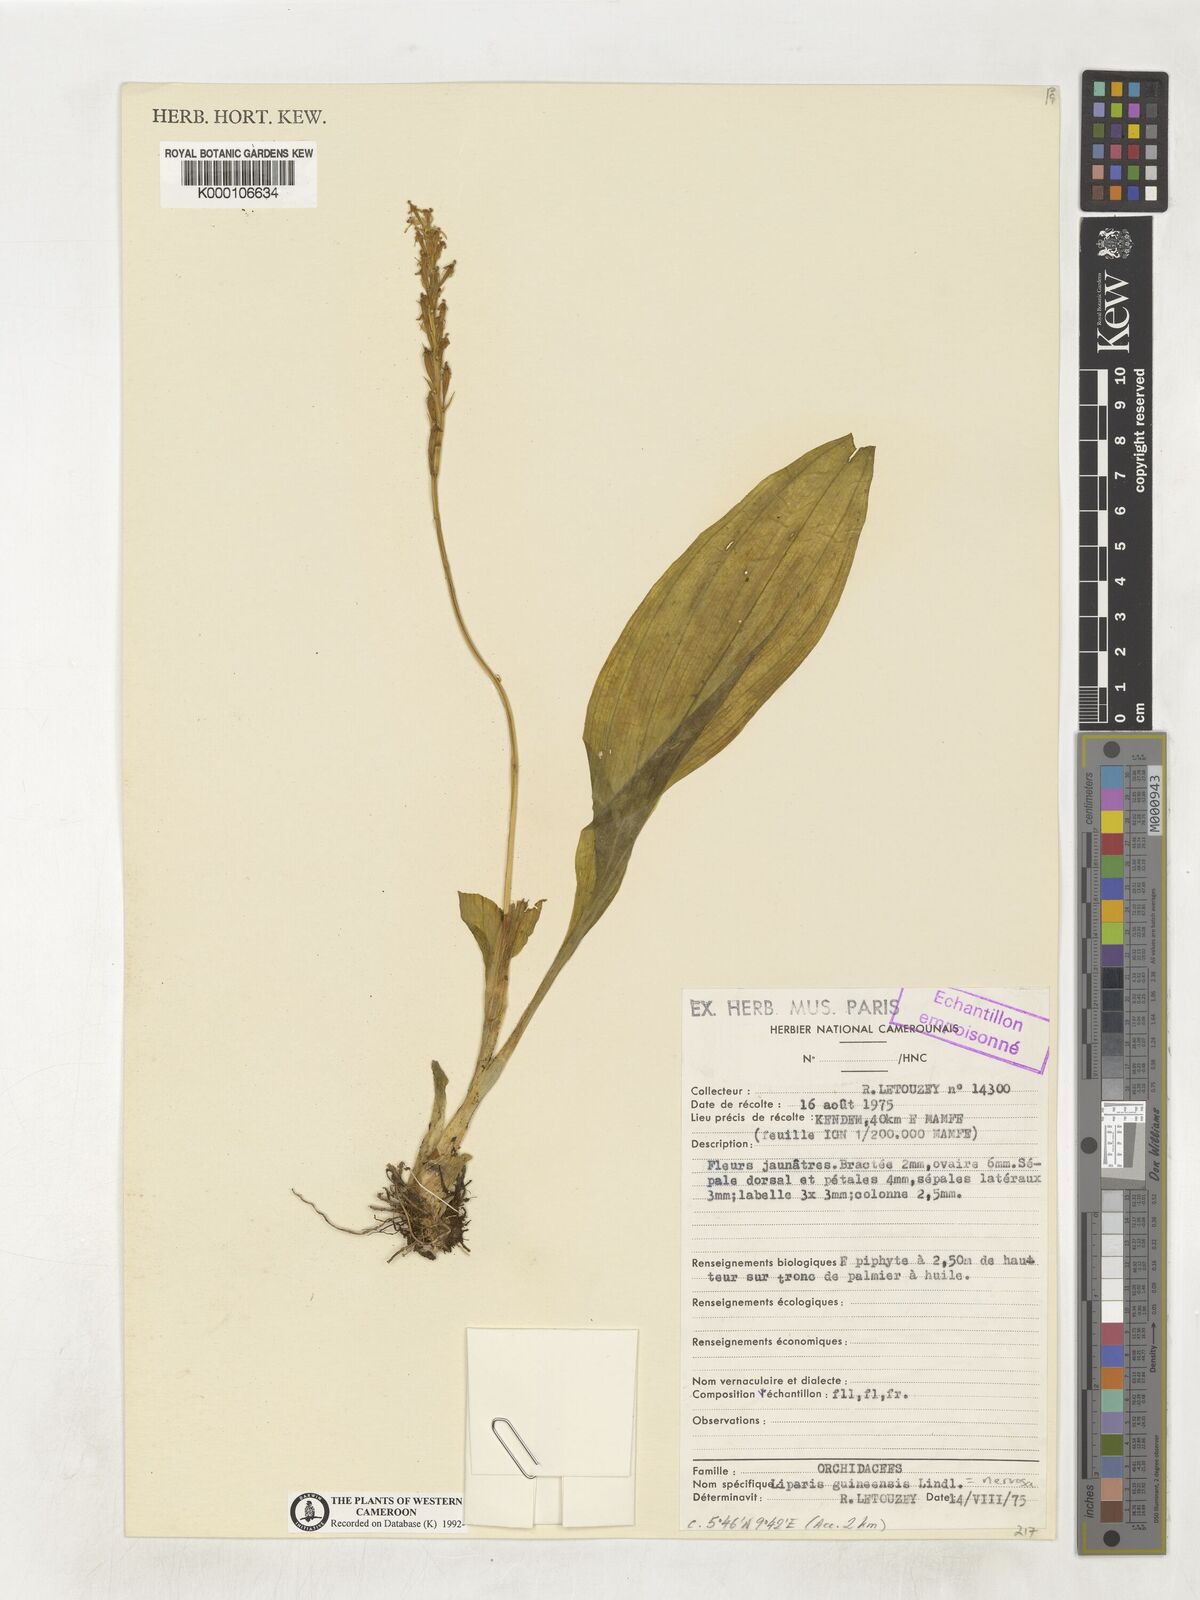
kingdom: Plantae
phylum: Tracheophyta
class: Liliopsida
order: Asparagales
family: Orchidaceae
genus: Liparis
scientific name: Liparis nervosa
